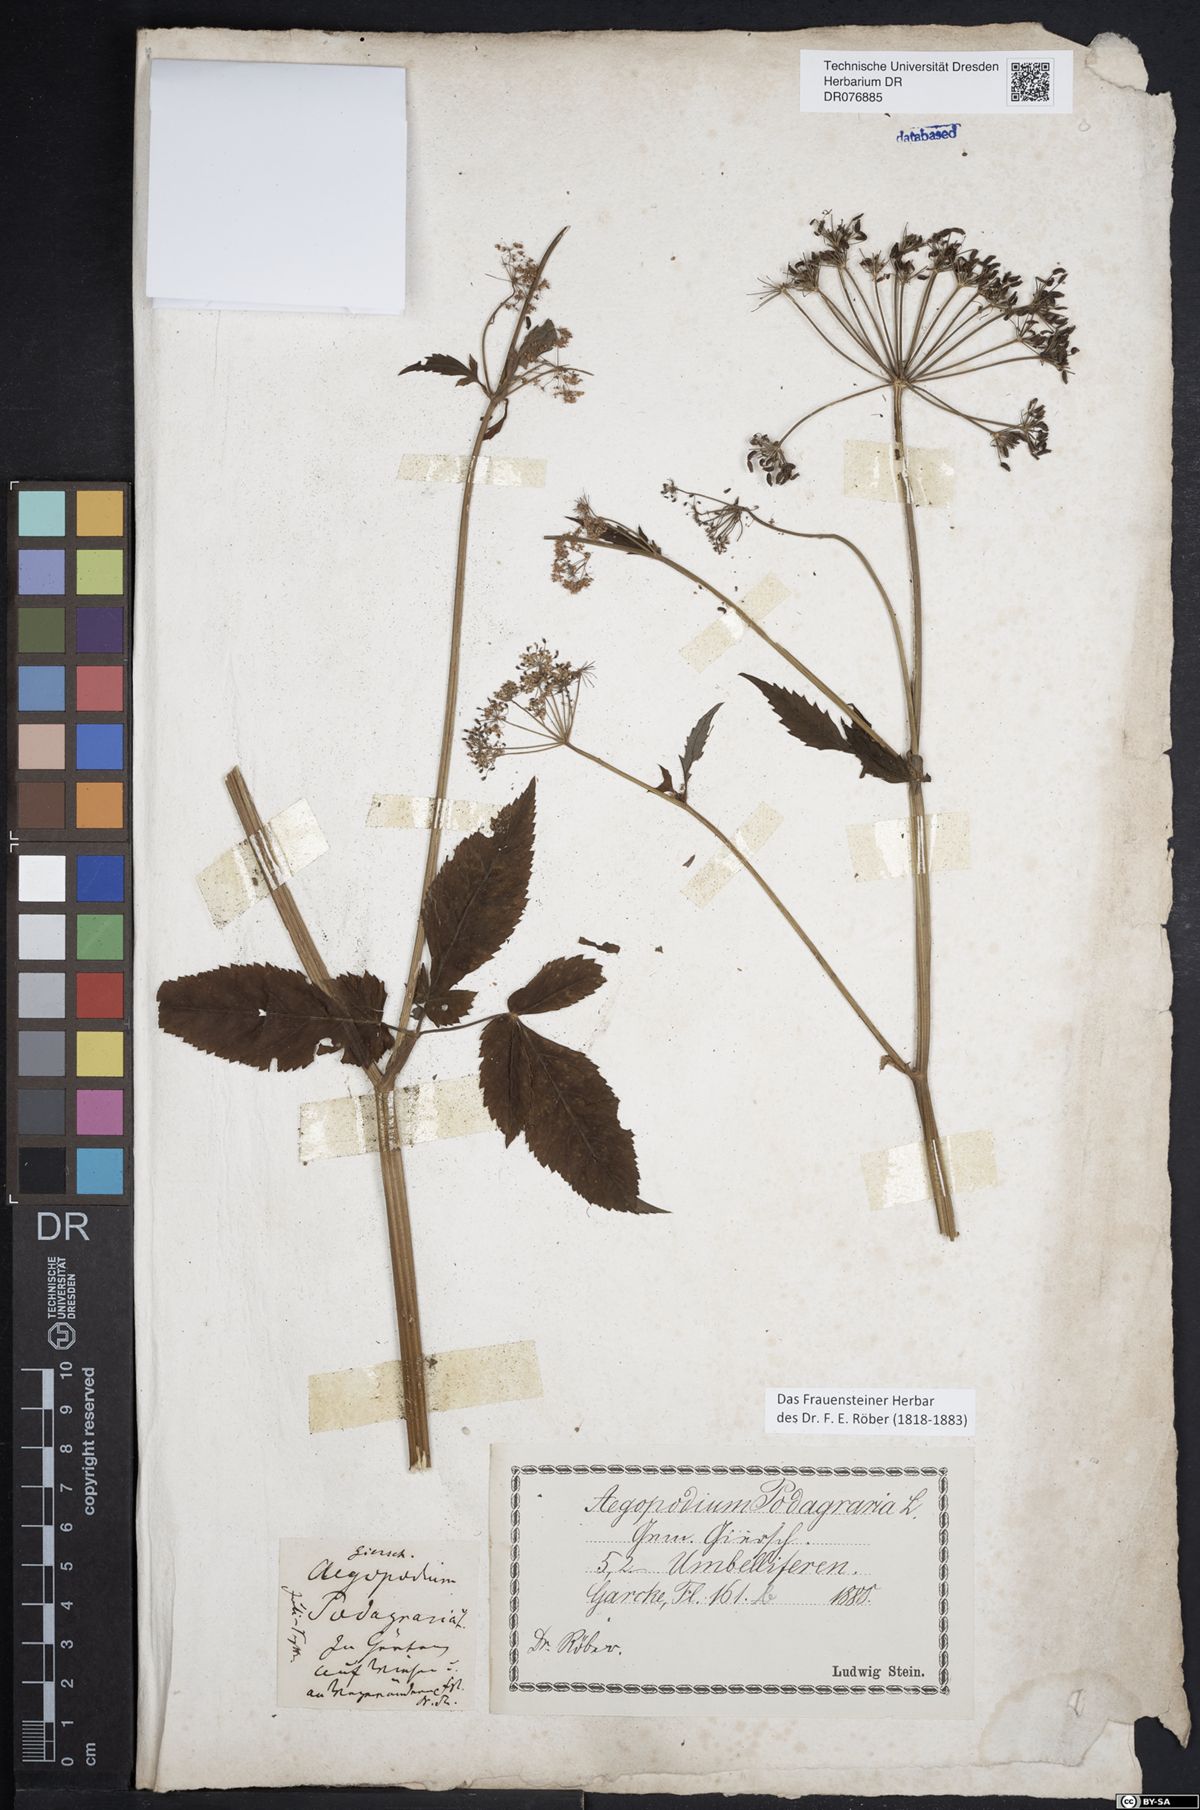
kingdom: Plantae
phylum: Tracheophyta
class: Magnoliopsida
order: Apiales
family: Apiaceae
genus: Aegopodium
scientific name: Aegopodium podagraria
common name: Ground-elder
